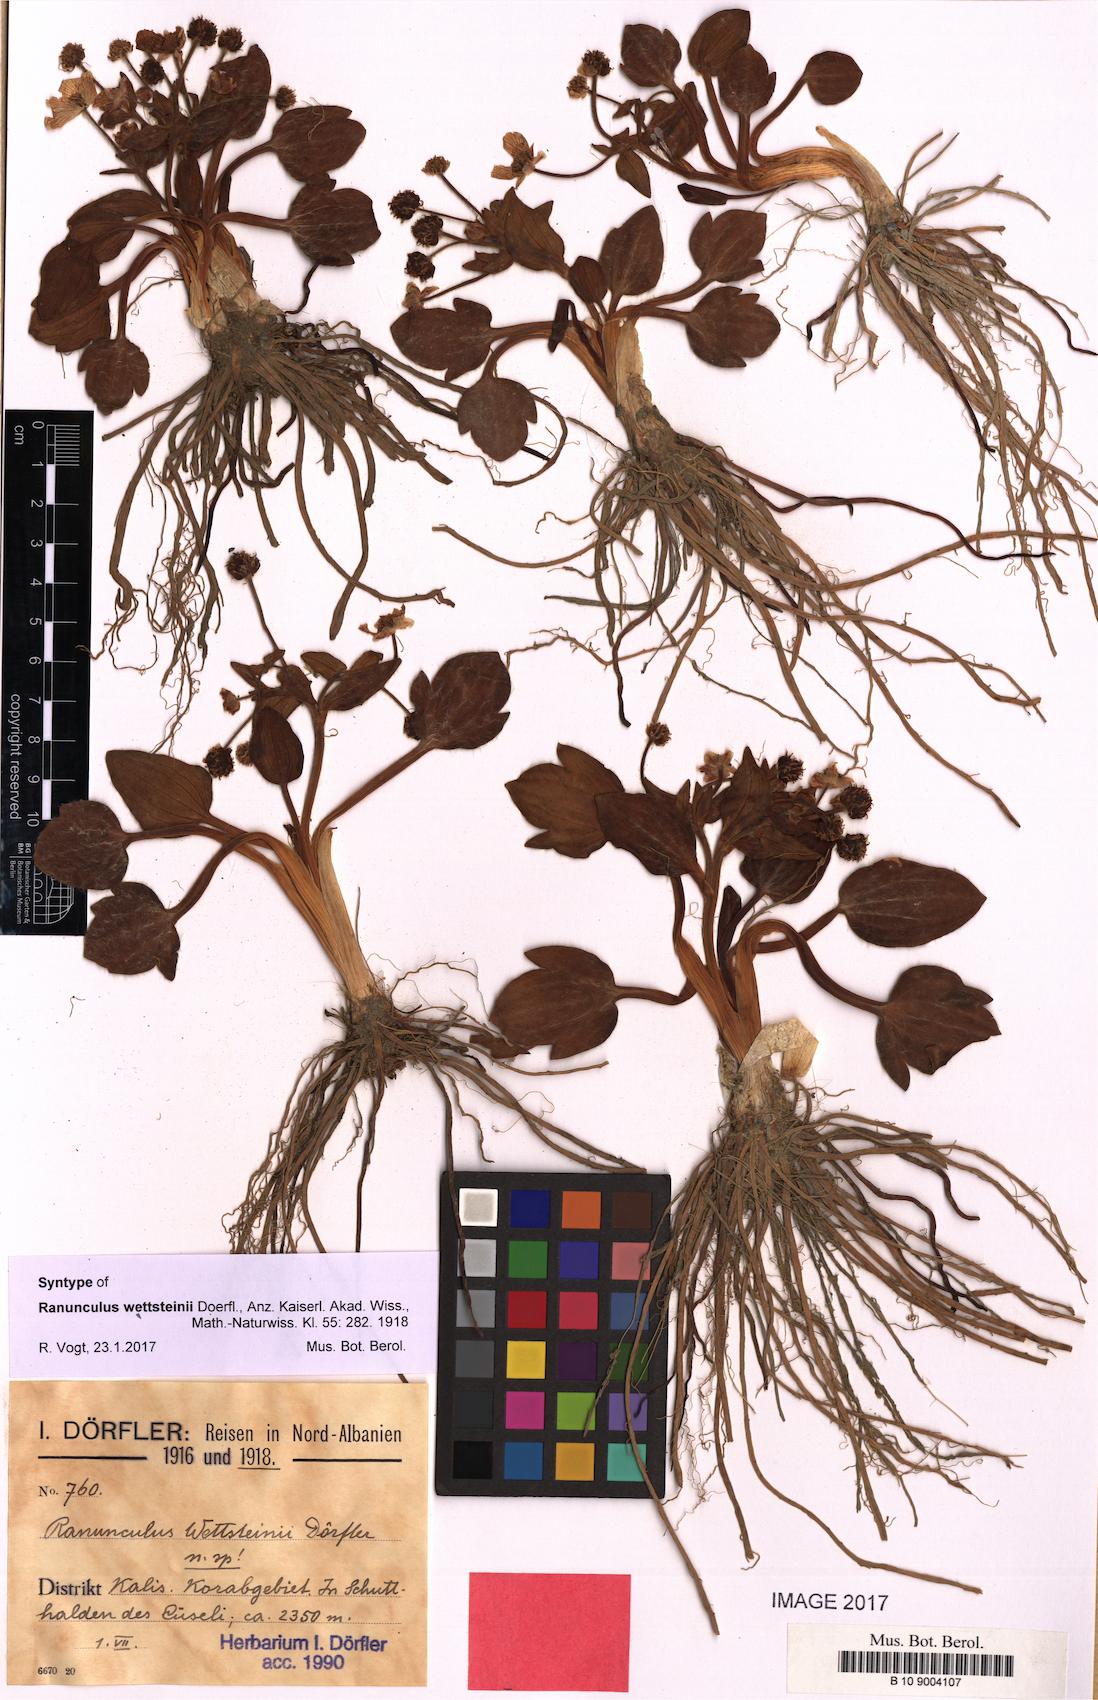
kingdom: Plantae
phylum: Tracheophyta
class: Magnoliopsida
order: Ranunculales
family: Ranunculaceae
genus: Ranunculus
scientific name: Ranunculus wettsteinii
